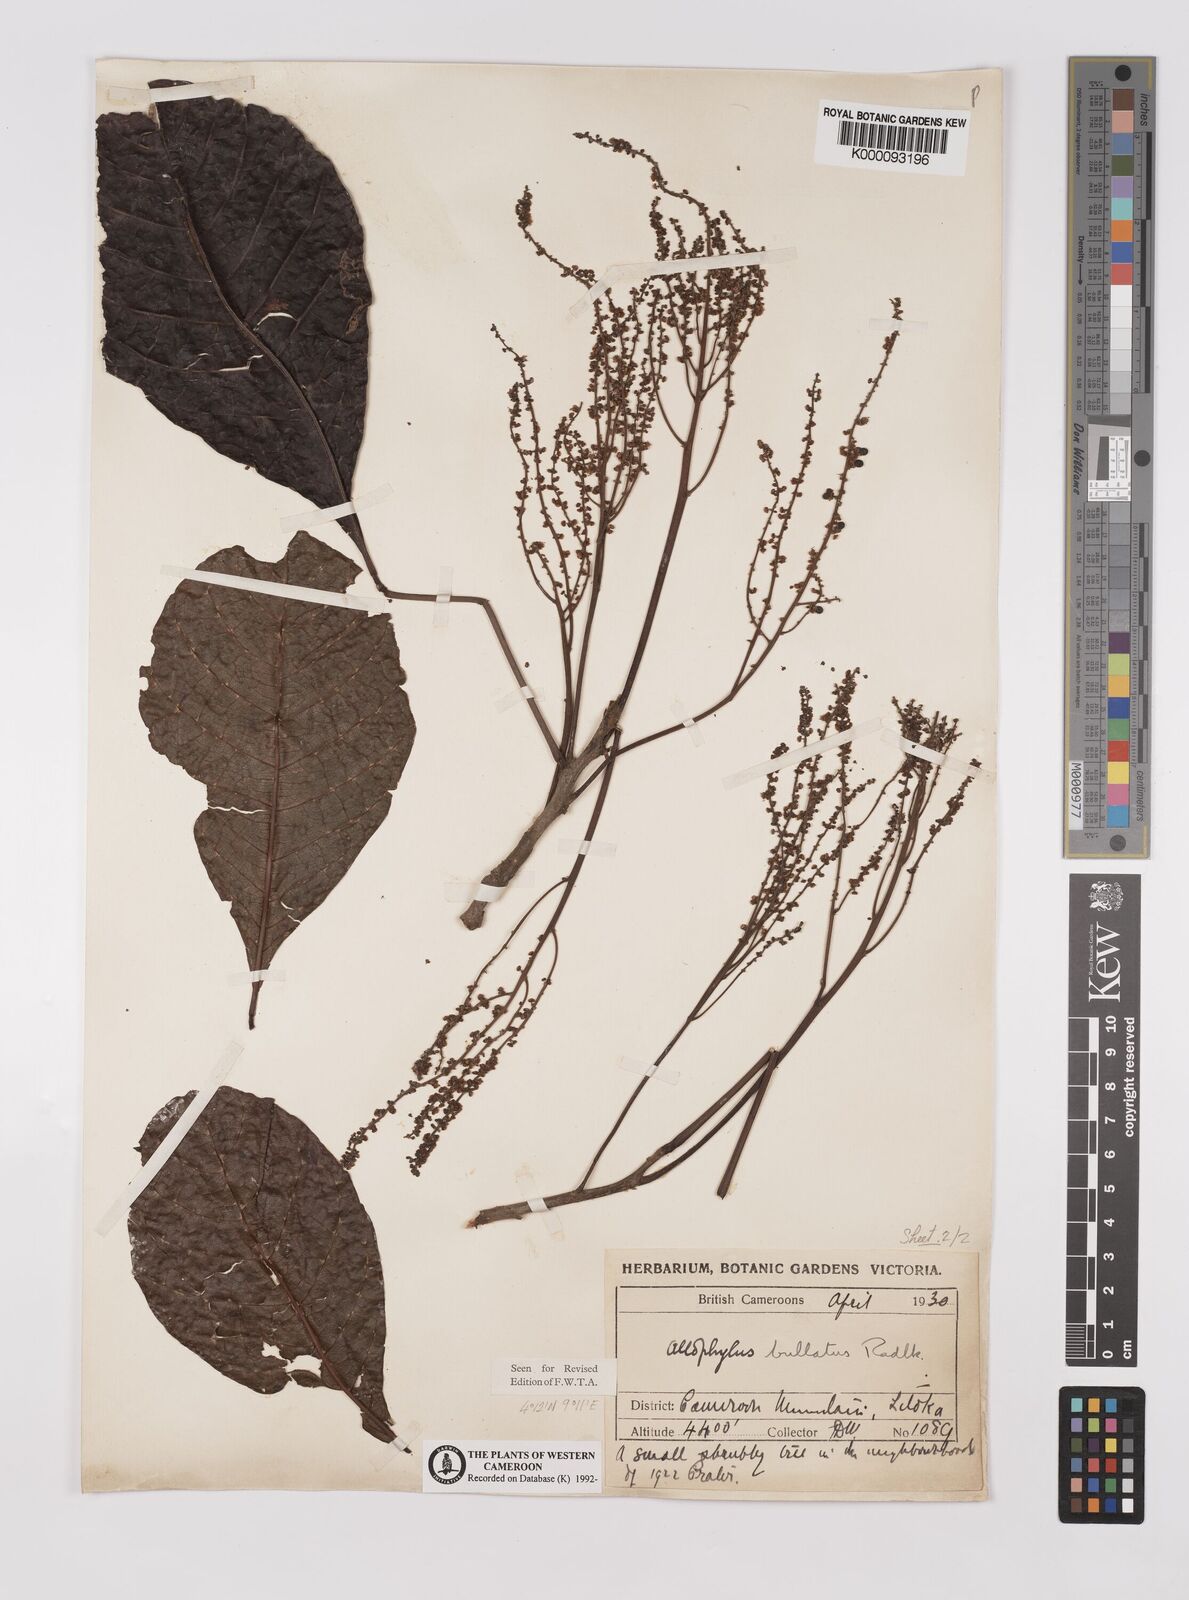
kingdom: Plantae
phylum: Tracheophyta
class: Magnoliopsida
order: Sapindales
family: Sapindaceae
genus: Allophylus
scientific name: Allophylus bullatus
